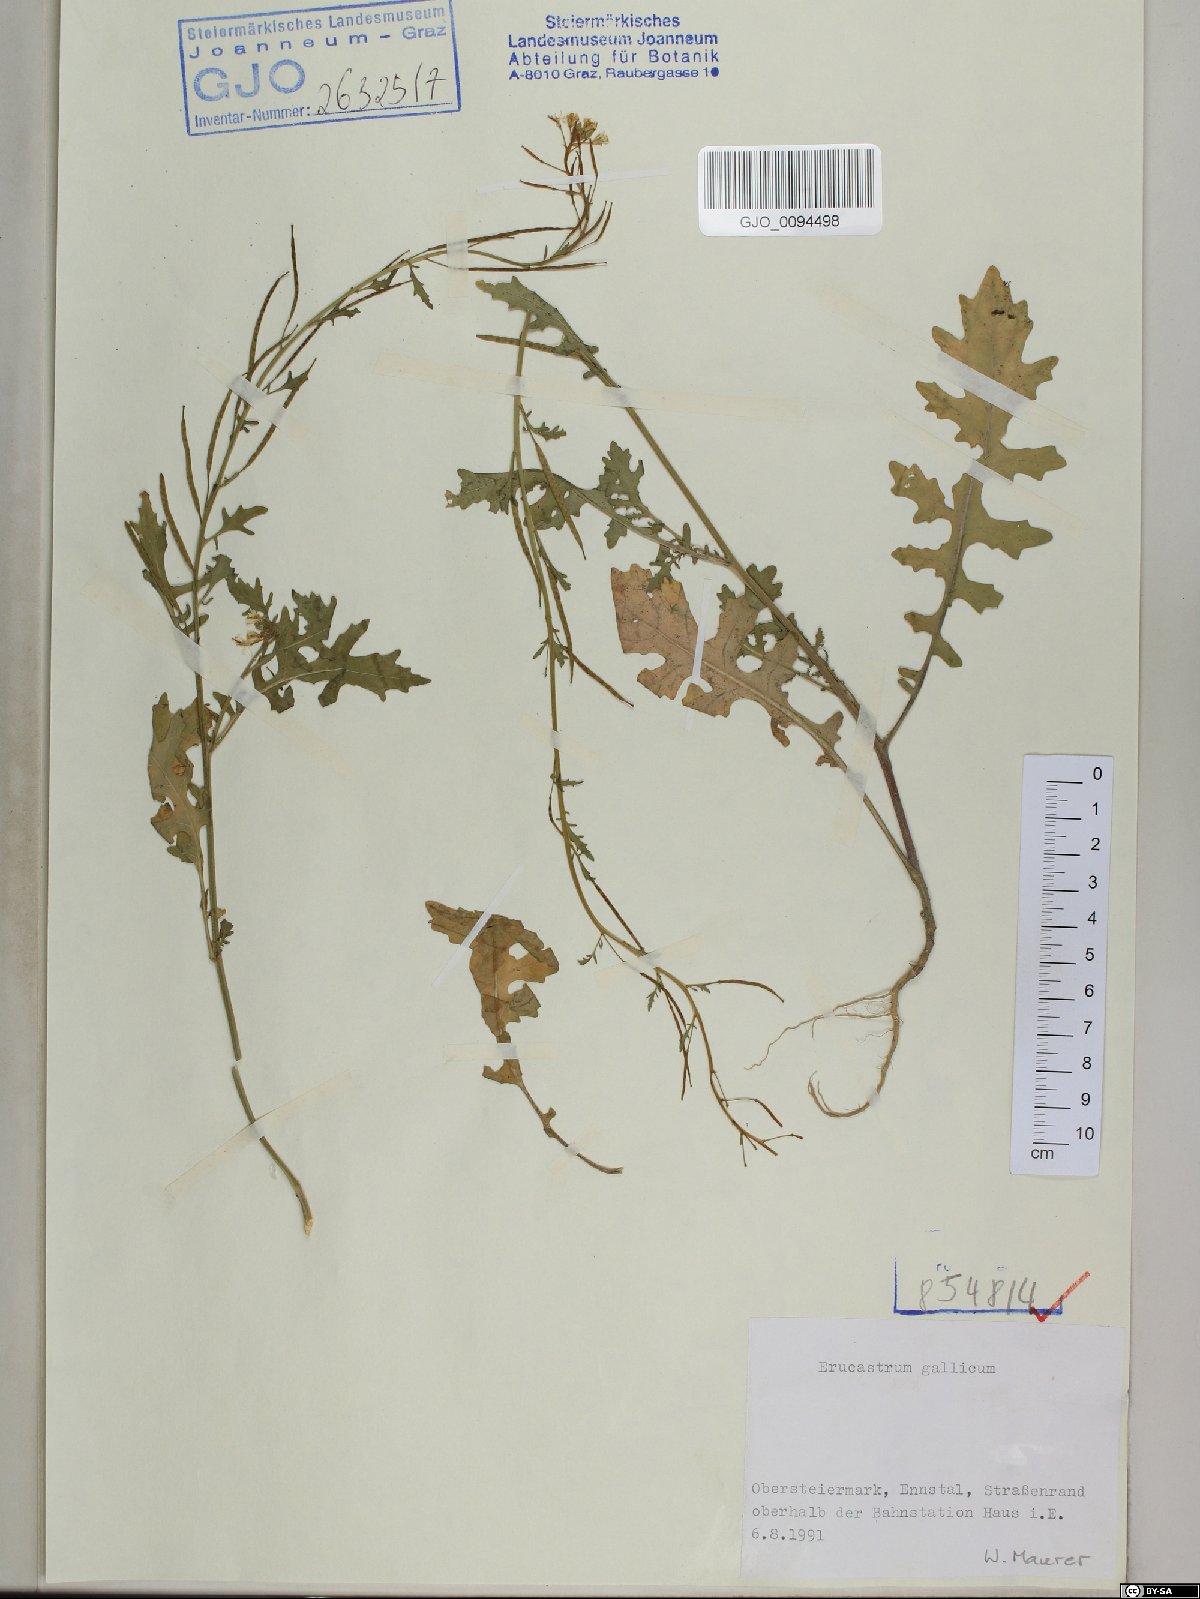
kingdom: Plantae
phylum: Tracheophyta
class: Magnoliopsida
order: Brassicales
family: Brassicaceae
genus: Erucastrum
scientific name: Erucastrum gallicum
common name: Hairy rocket
